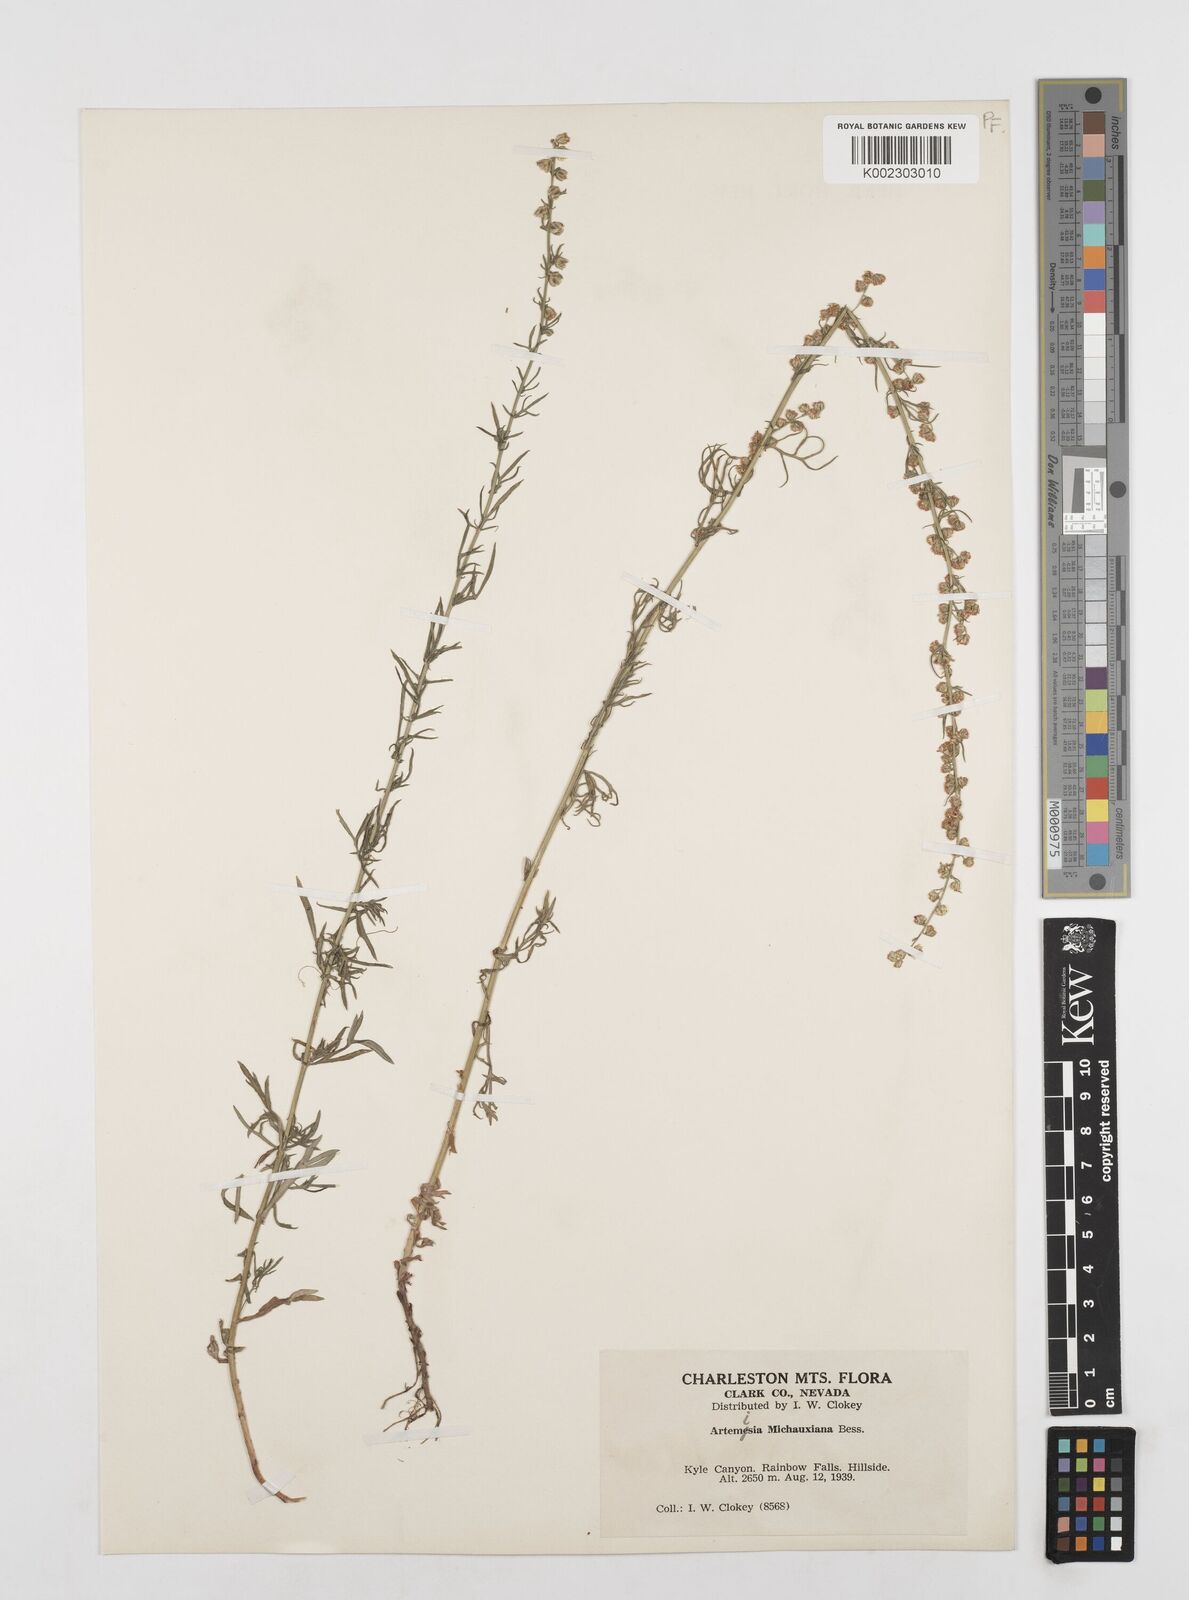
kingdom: Plantae
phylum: Tracheophyta
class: Magnoliopsida
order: Asterales
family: Asteraceae
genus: Artemisia
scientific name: Artemisia michauxiana
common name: Lemon sagewort
